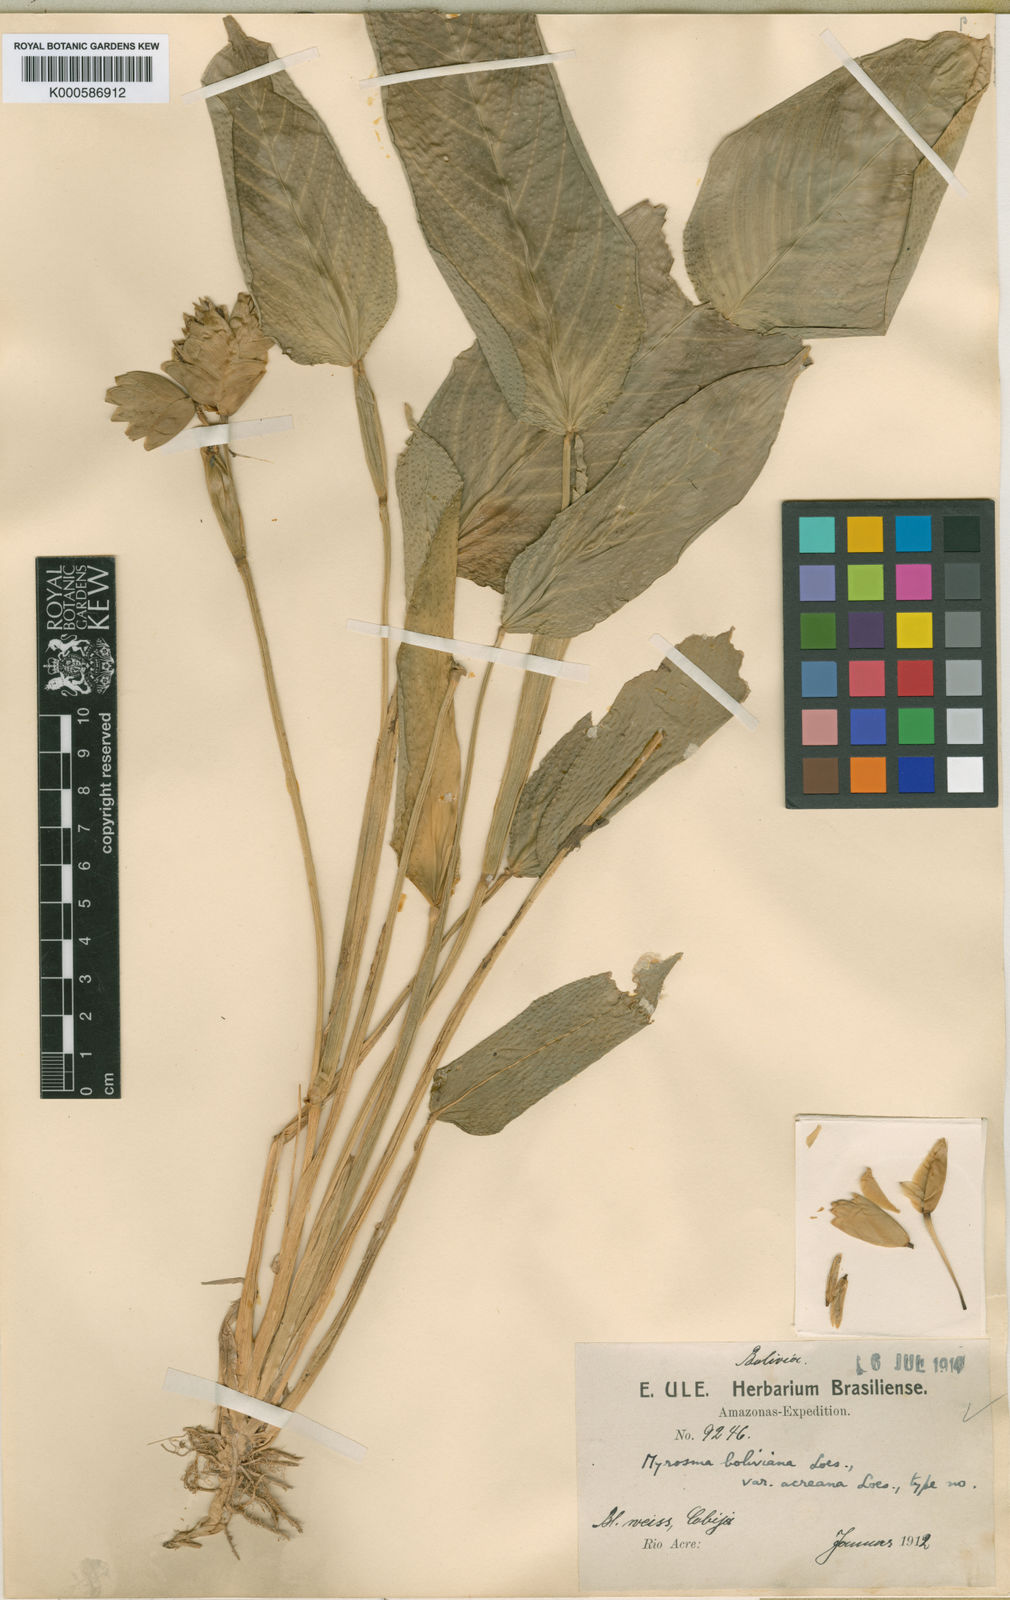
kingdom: Plantae
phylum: Tracheophyta
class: Liliopsida
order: Zingiberales
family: Marantaceae
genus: Myrosma
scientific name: Myrosma cannifolia
